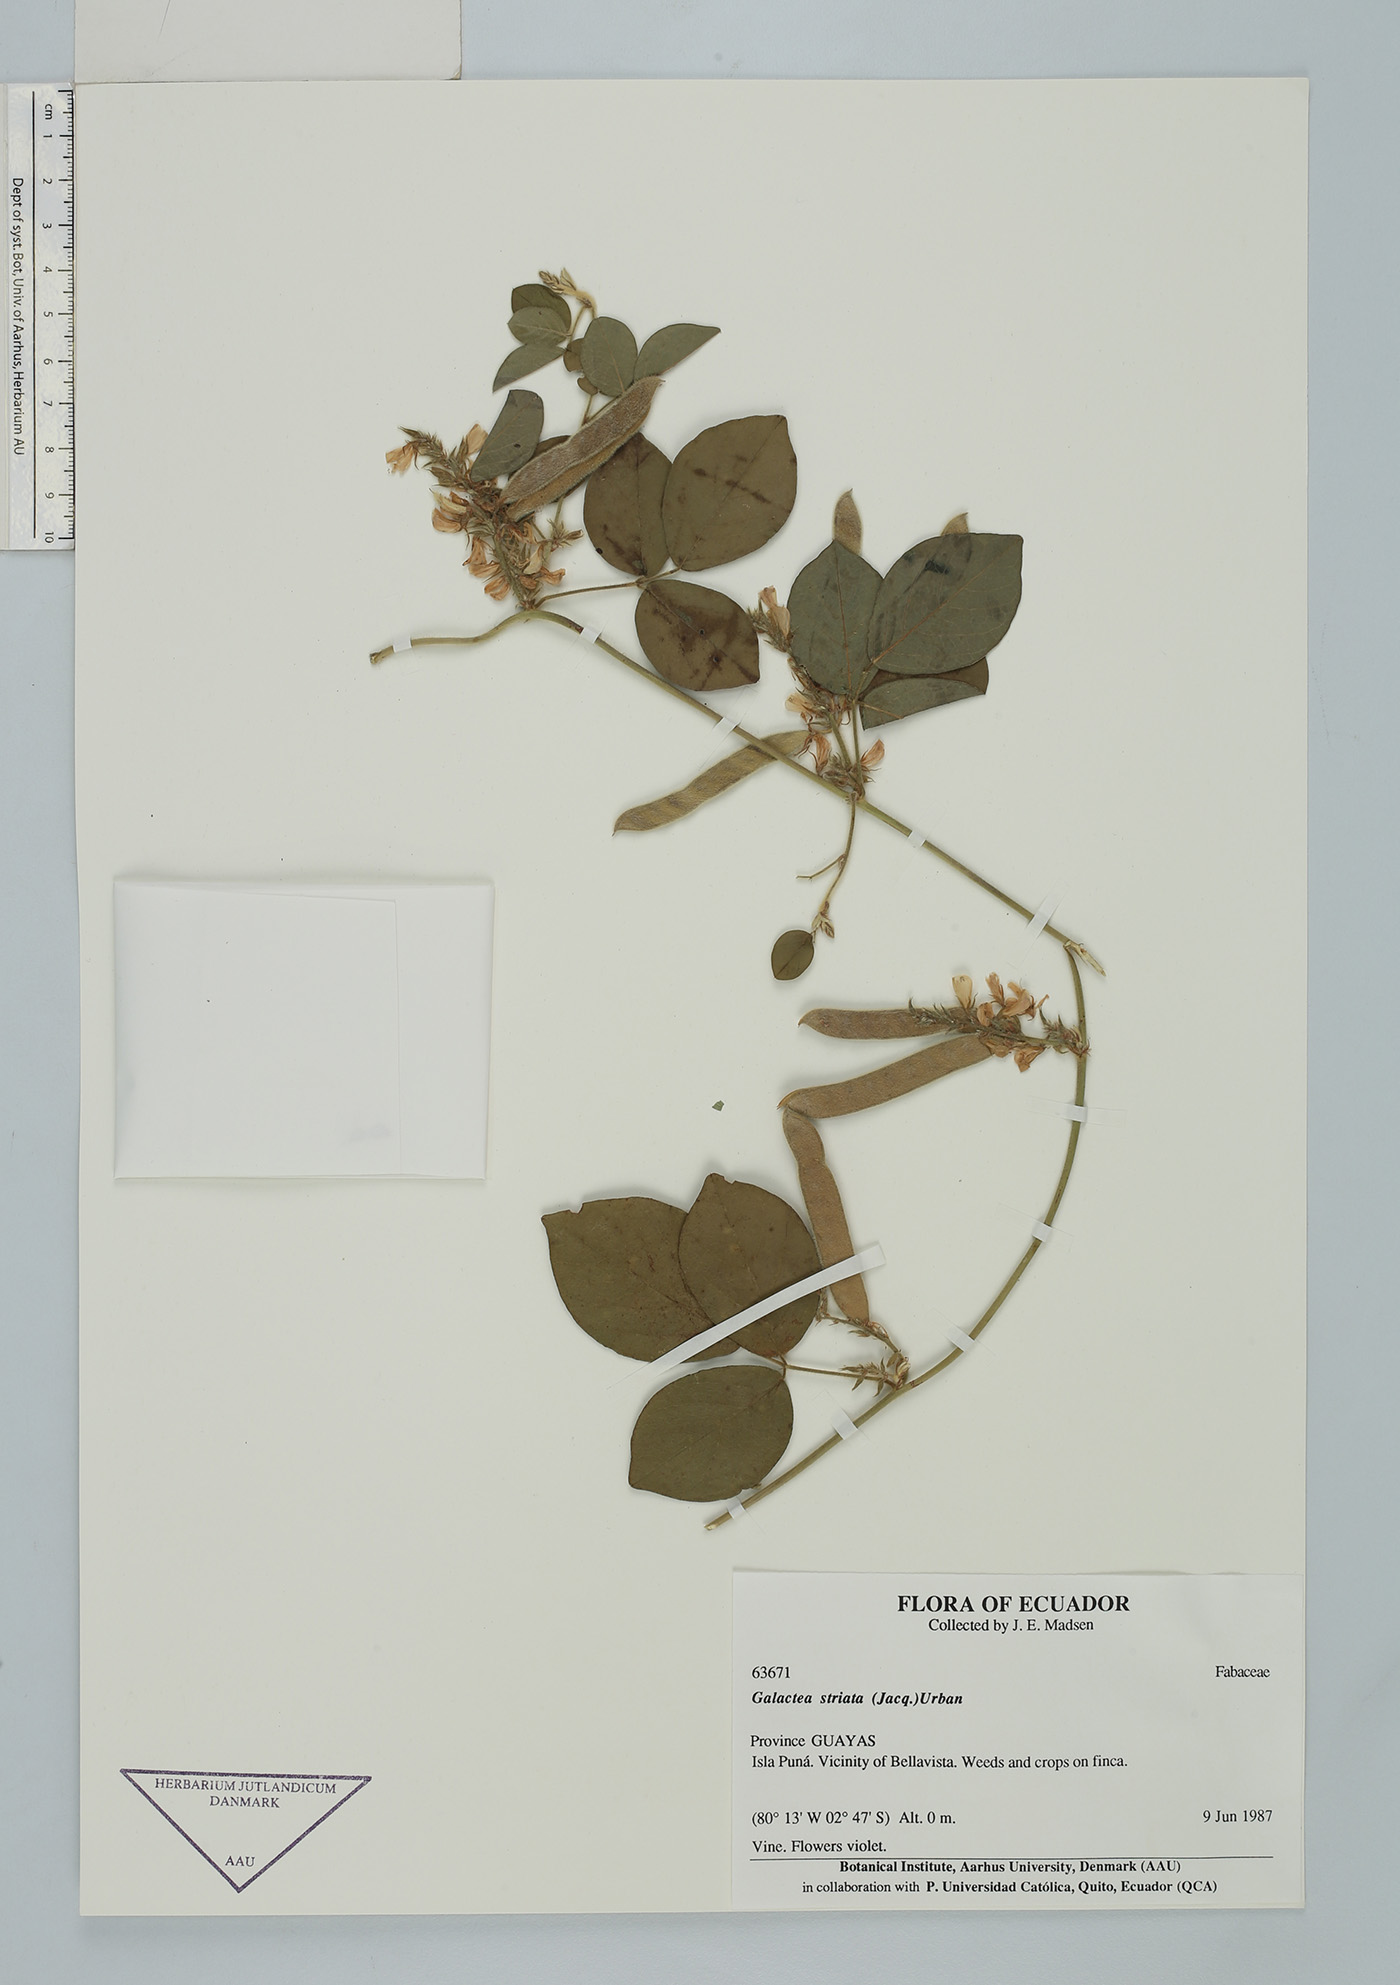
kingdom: Plantae
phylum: Tracheophyta
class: Magnoliopsida
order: Fabales
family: Fabaceae
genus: Galactia
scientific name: Galactia striata
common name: Florida hammock milkpea
